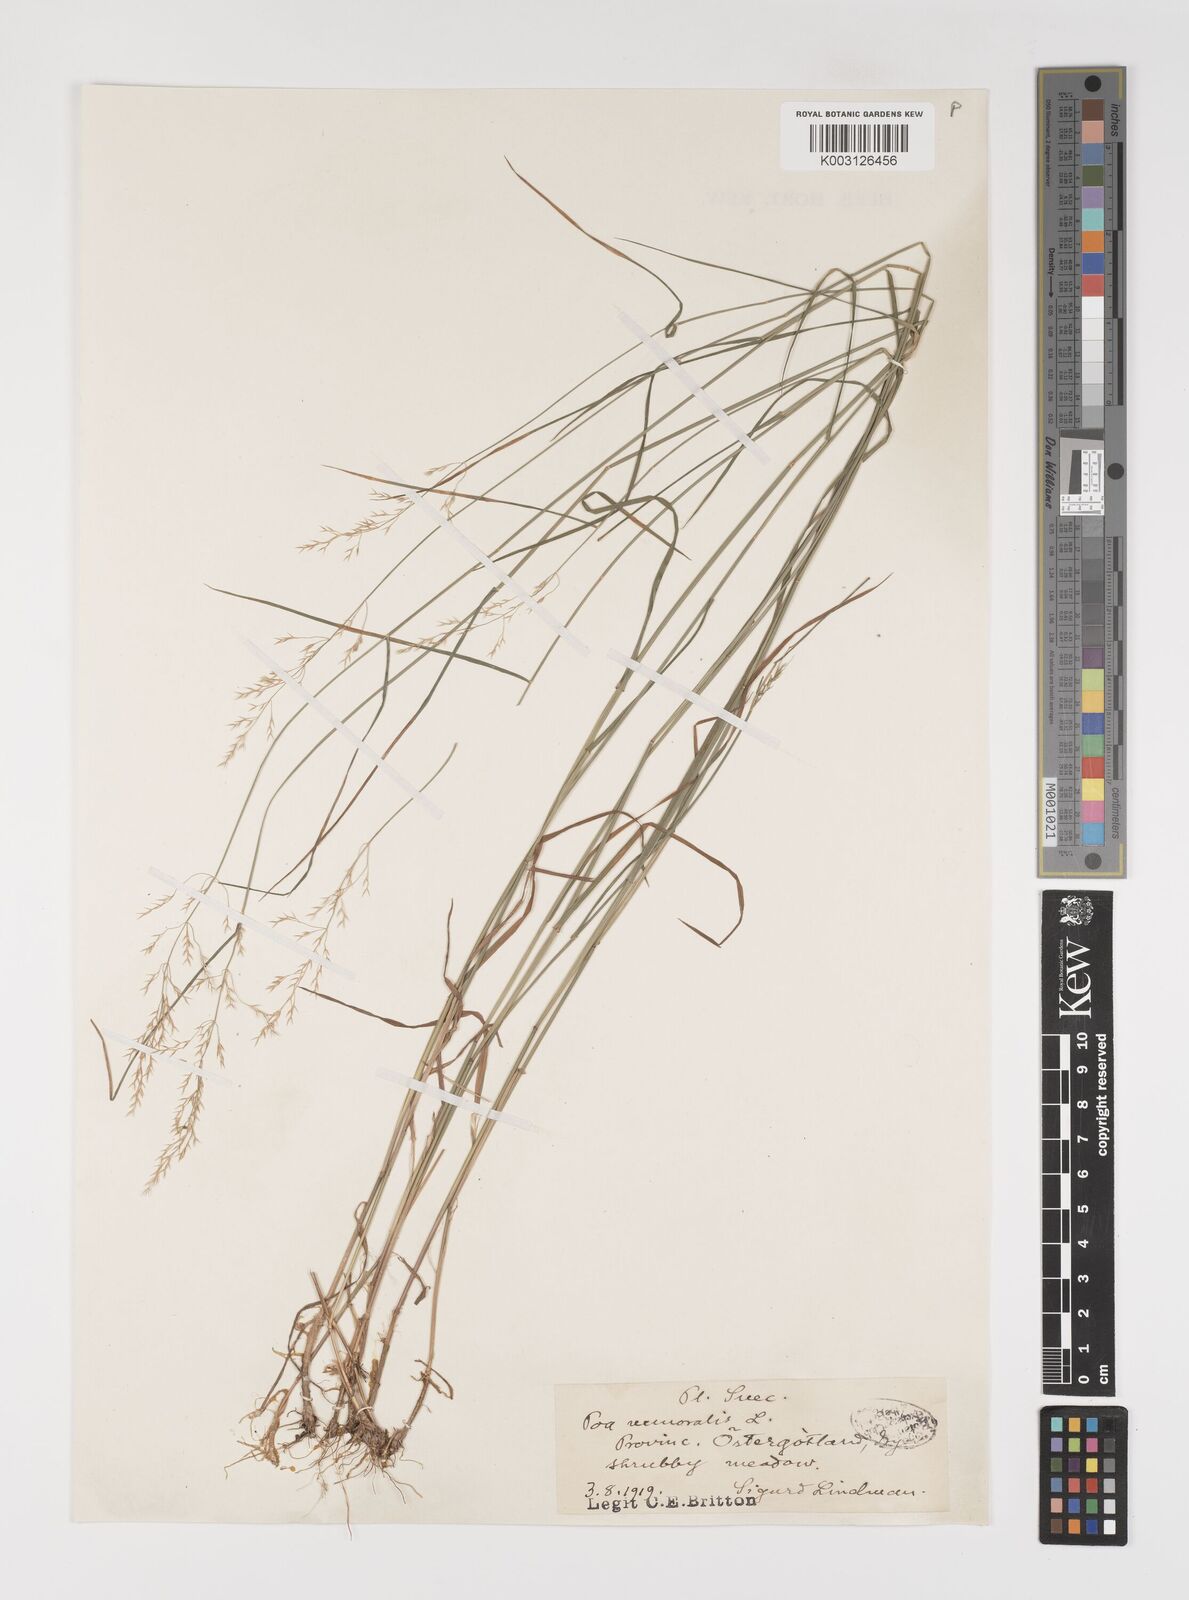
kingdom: Plantae
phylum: Tracheophyta
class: Liliopsida
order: Poales
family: Poaceae
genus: Poa
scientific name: Poa nemoralis
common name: Wood bluegrass
